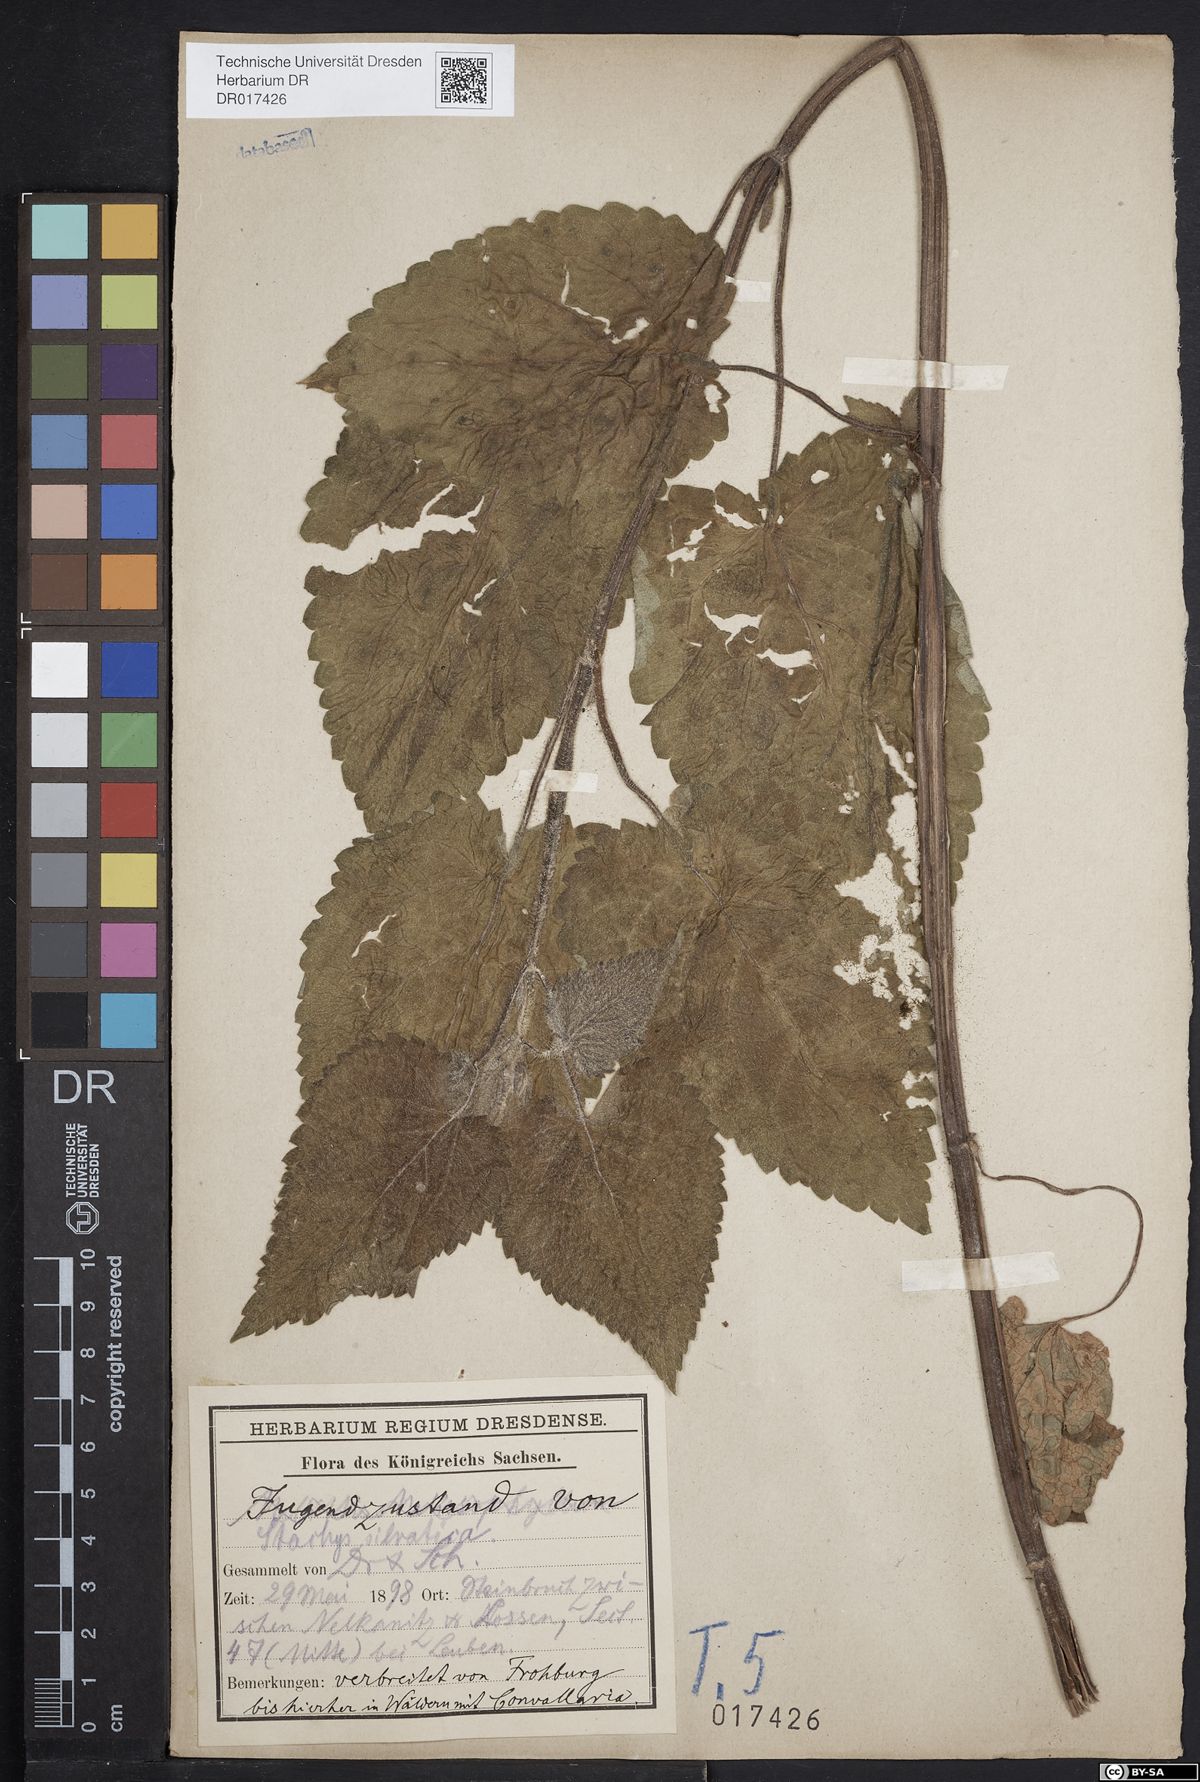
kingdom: Plantae
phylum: Tracheophyta
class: Magnoliopsida
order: Lamiales
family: Lamiaceae
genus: Stachys
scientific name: Stachys sylvatica
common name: Hedge woundwort
